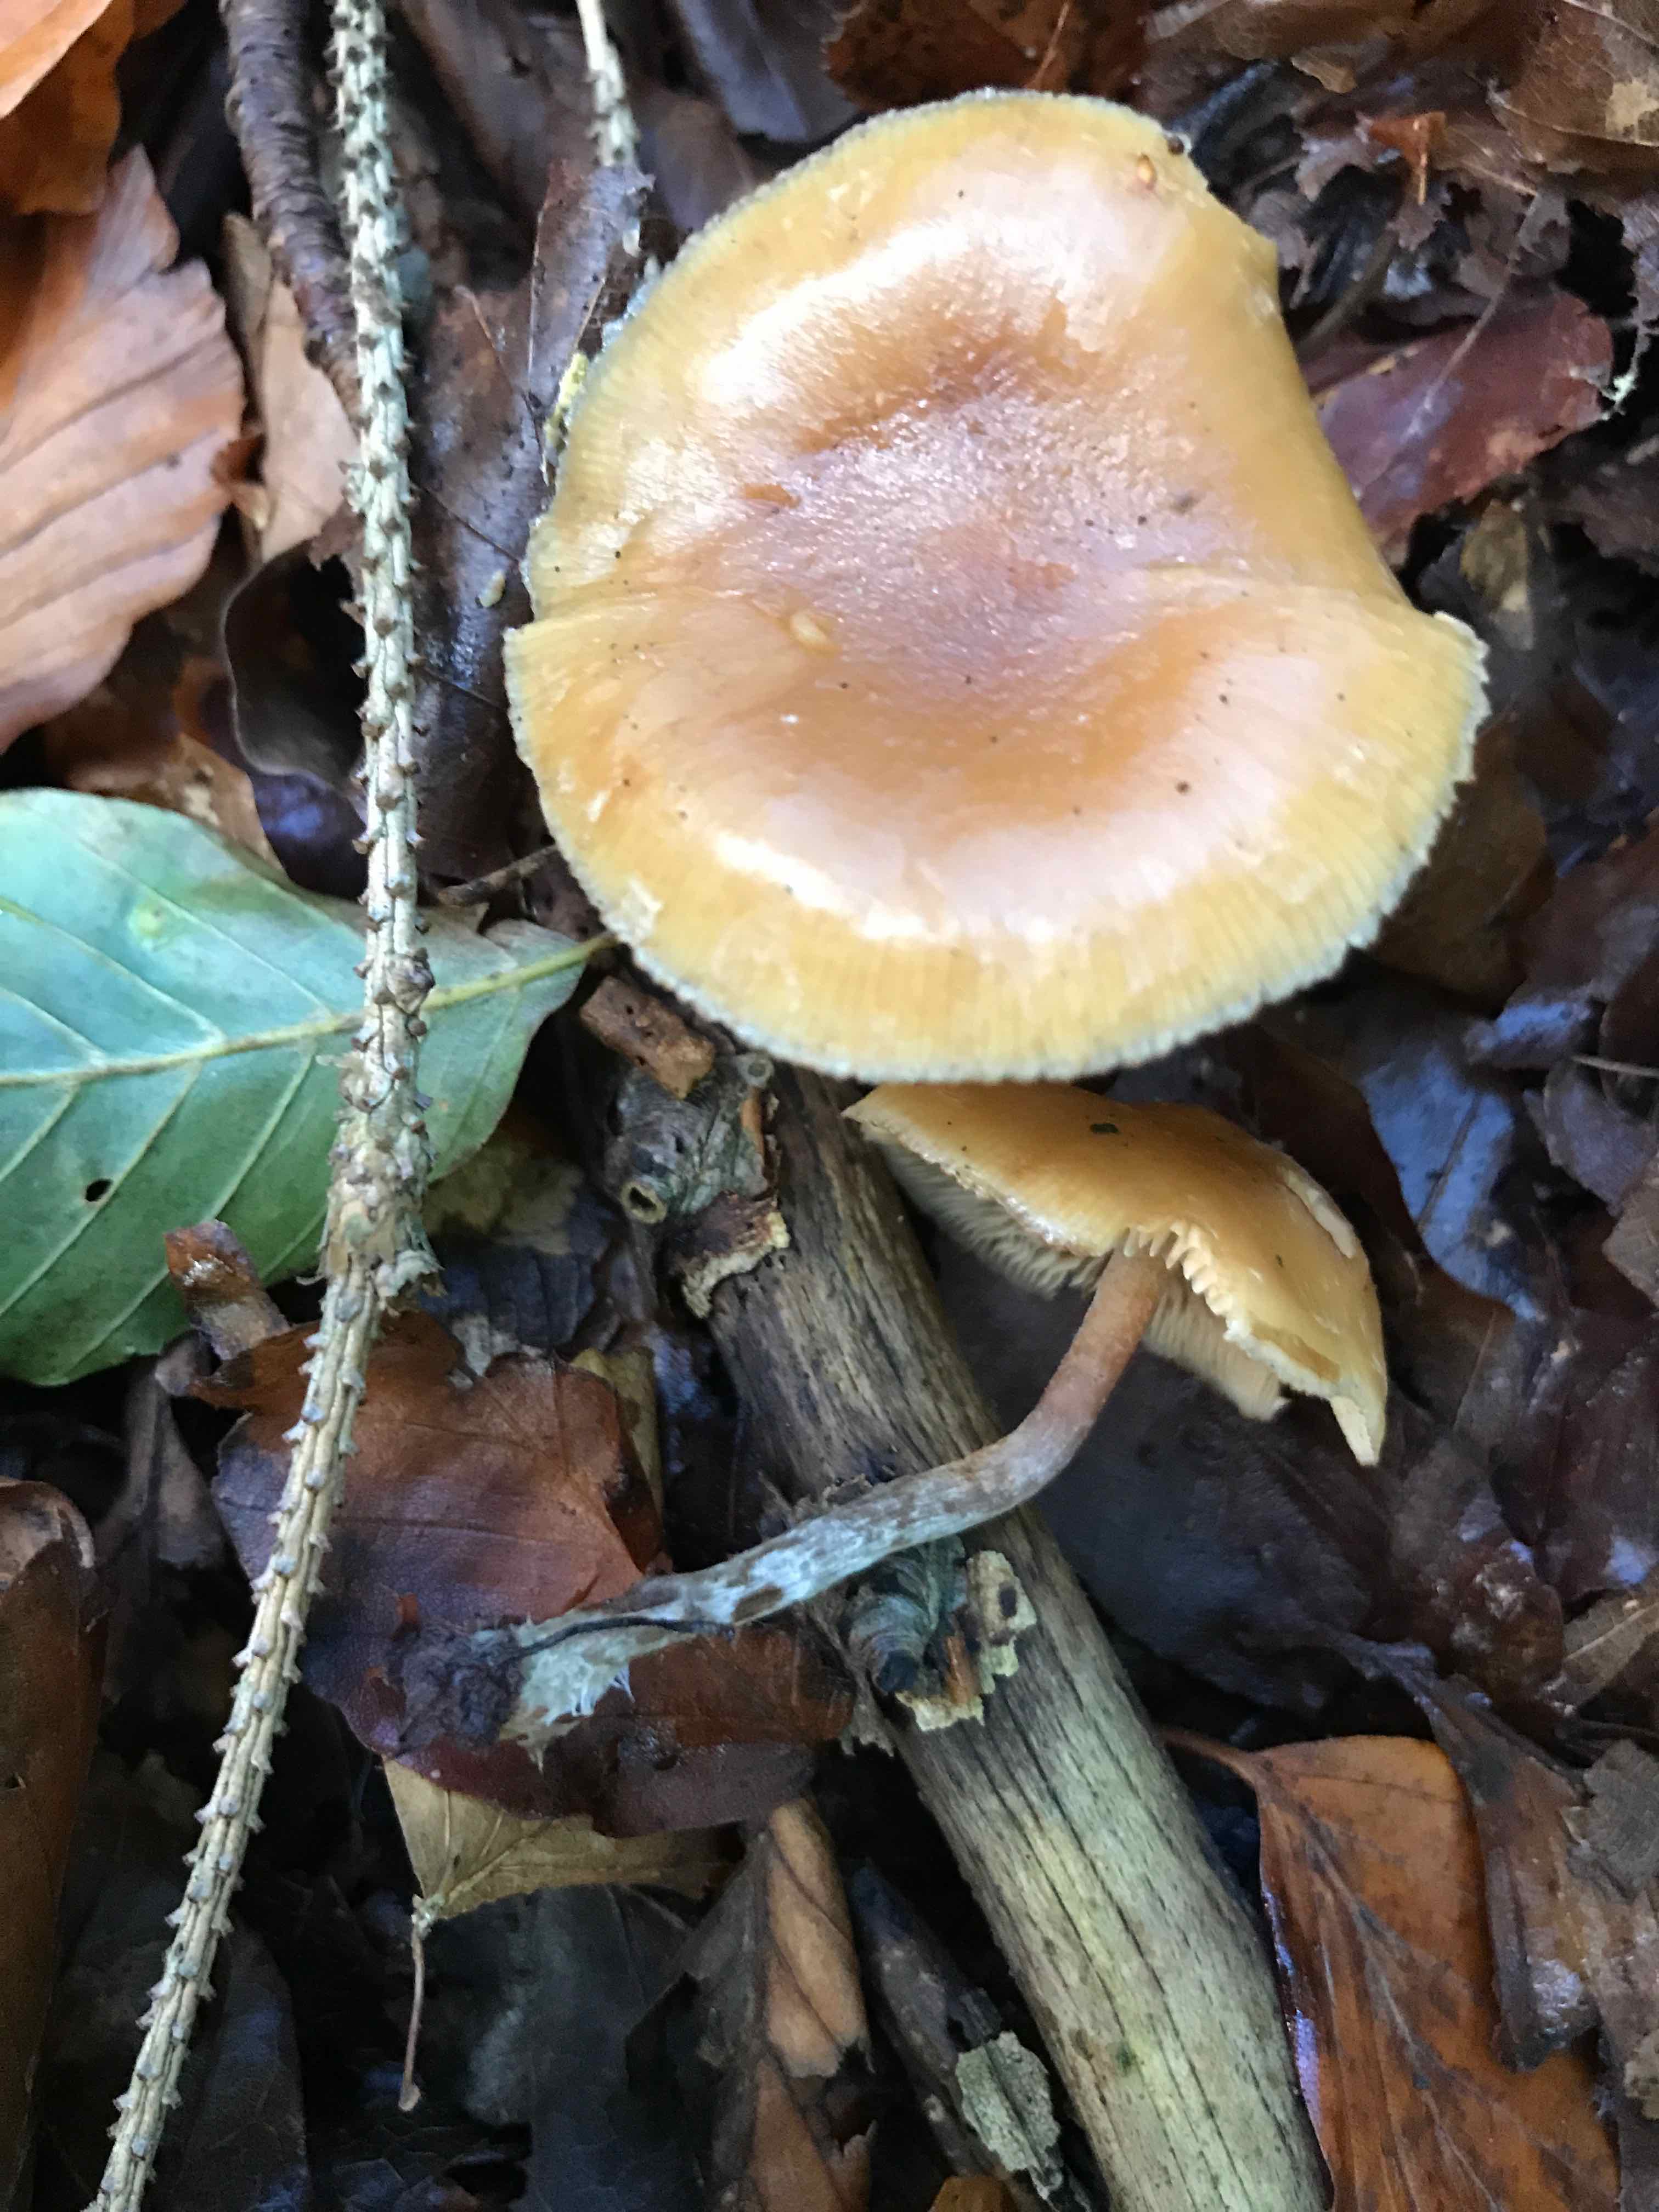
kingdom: Fungi
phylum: Basidiomycota
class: Agaricomycetes
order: Agaricales
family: Hymenogastraceae
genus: Galerina
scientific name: Galerina sideroides
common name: træflis-hjelmhat
